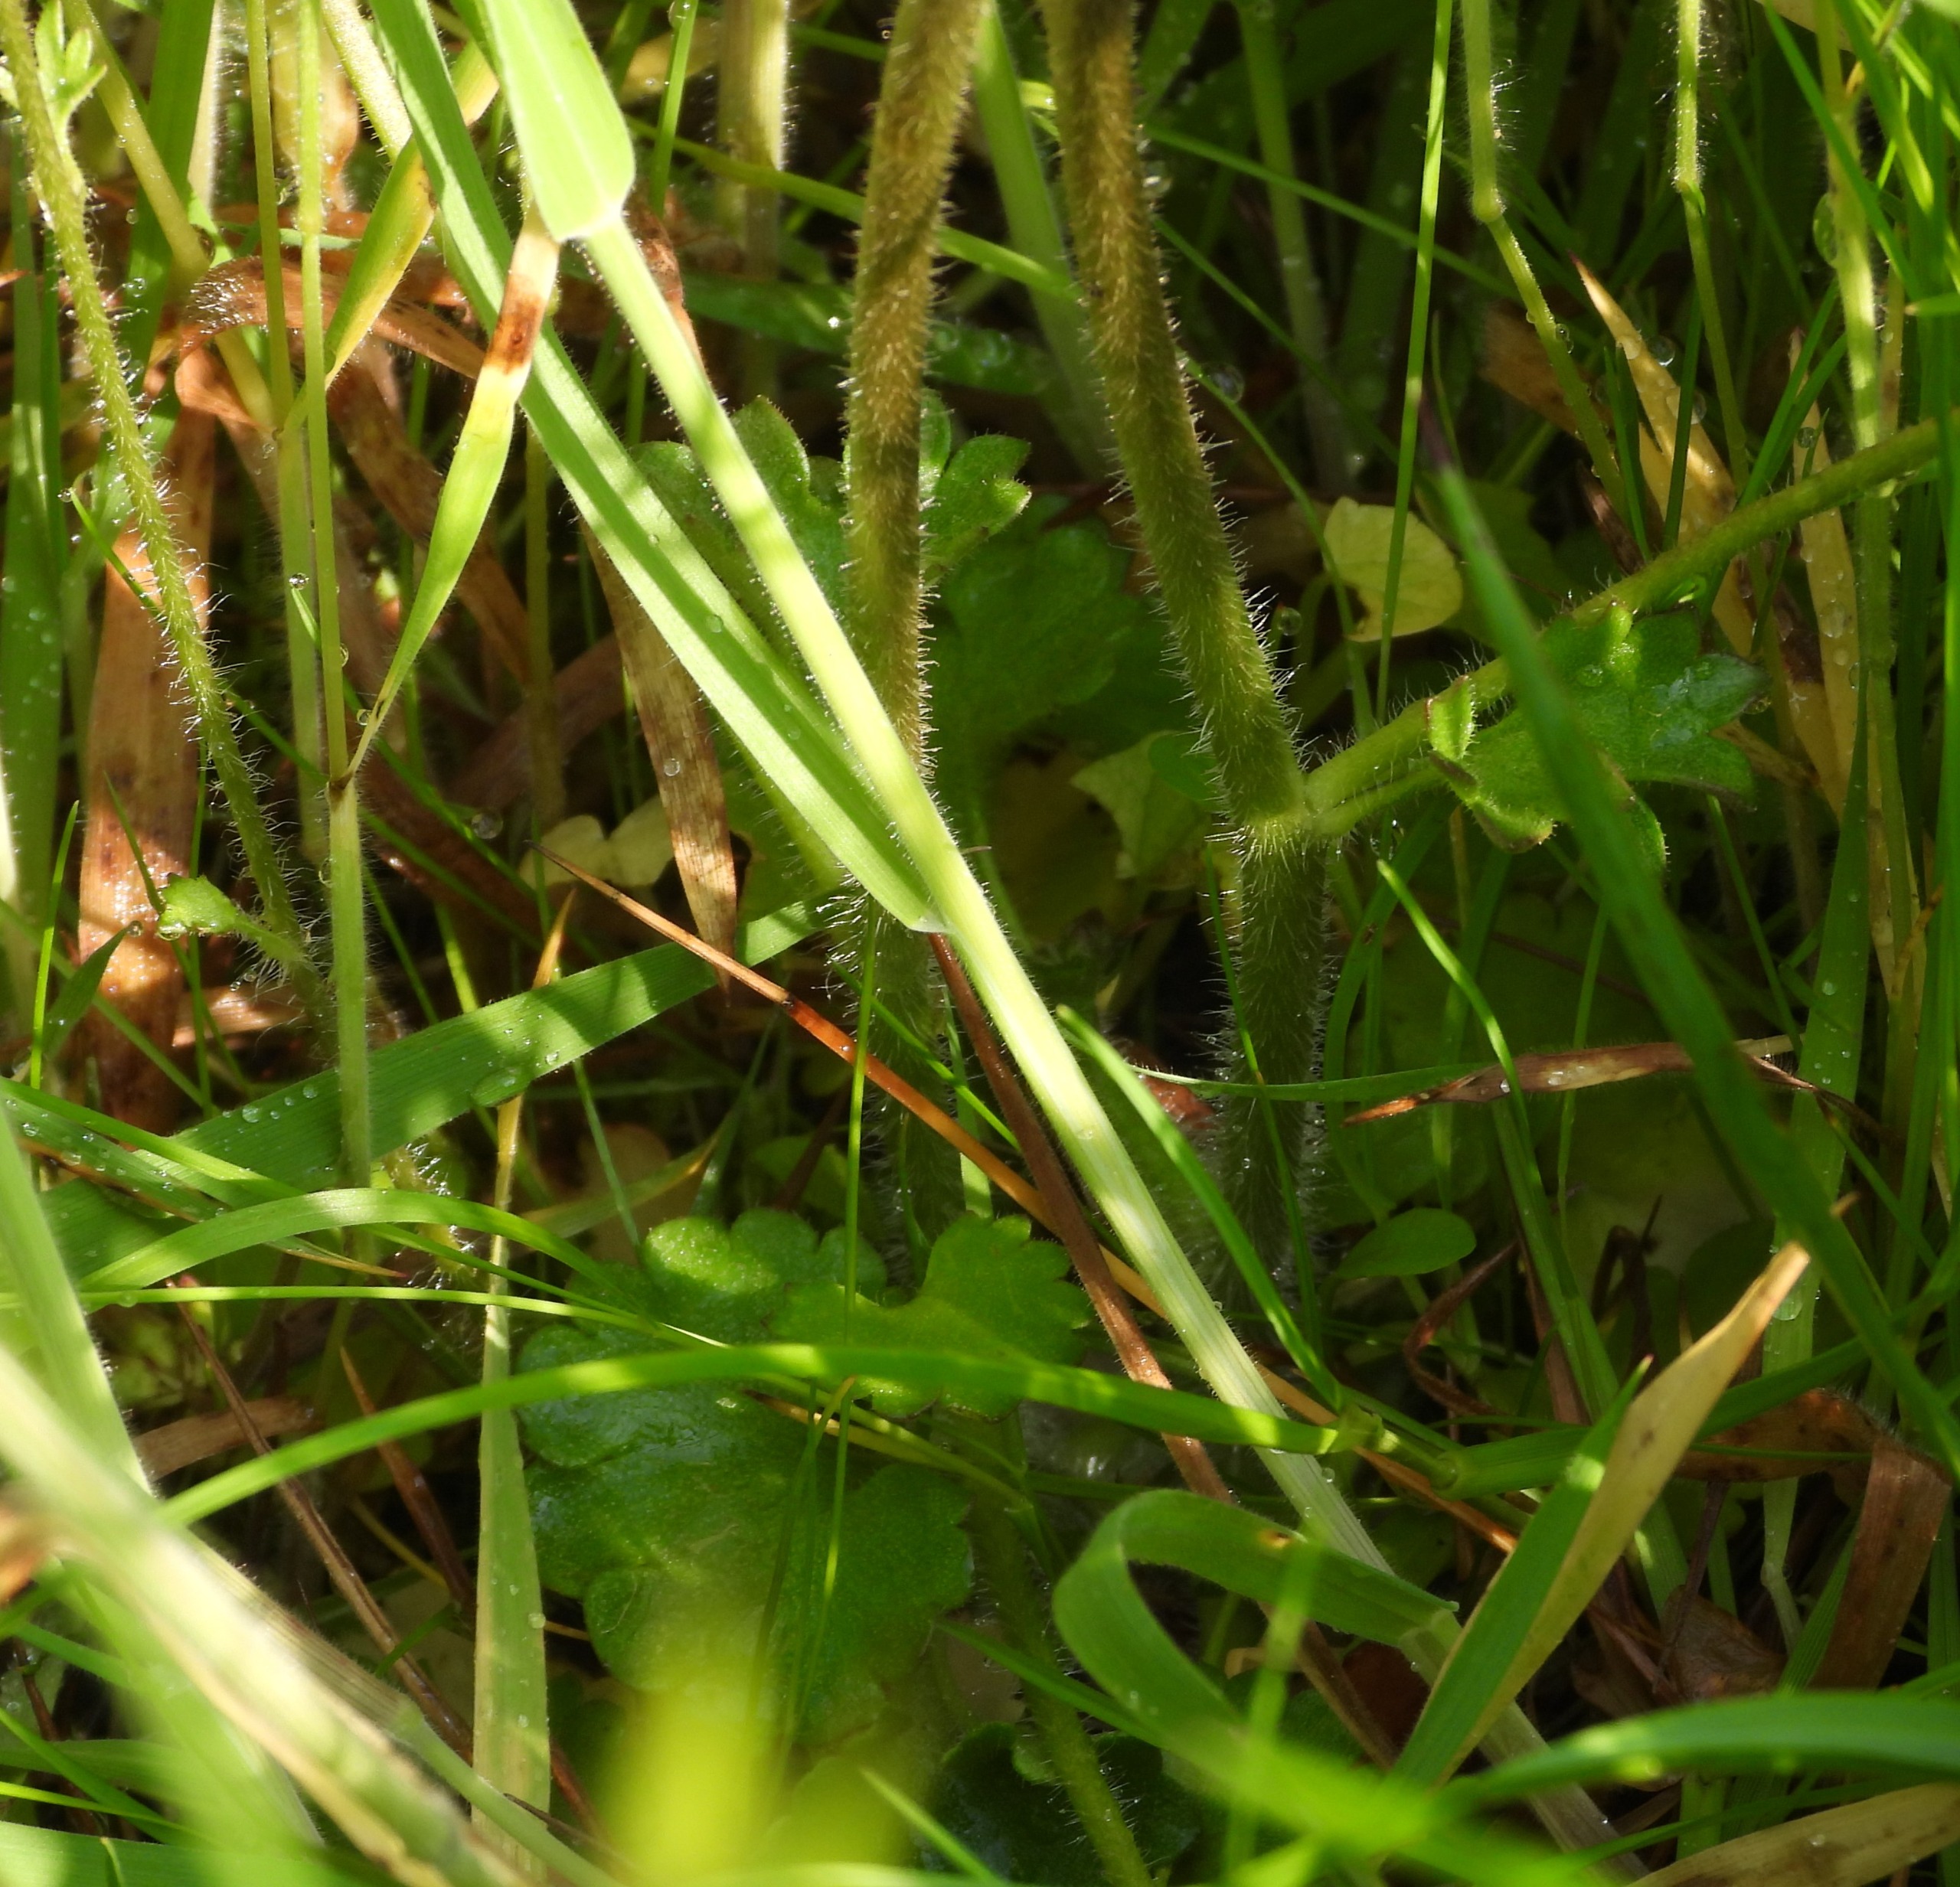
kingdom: Plantae
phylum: Tracheophyta
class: Magnoliopsida
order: Saxifragales
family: Saxifragaceae
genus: Saxifraga
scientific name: Saxifraga granulata
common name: Kornet stenbræk
